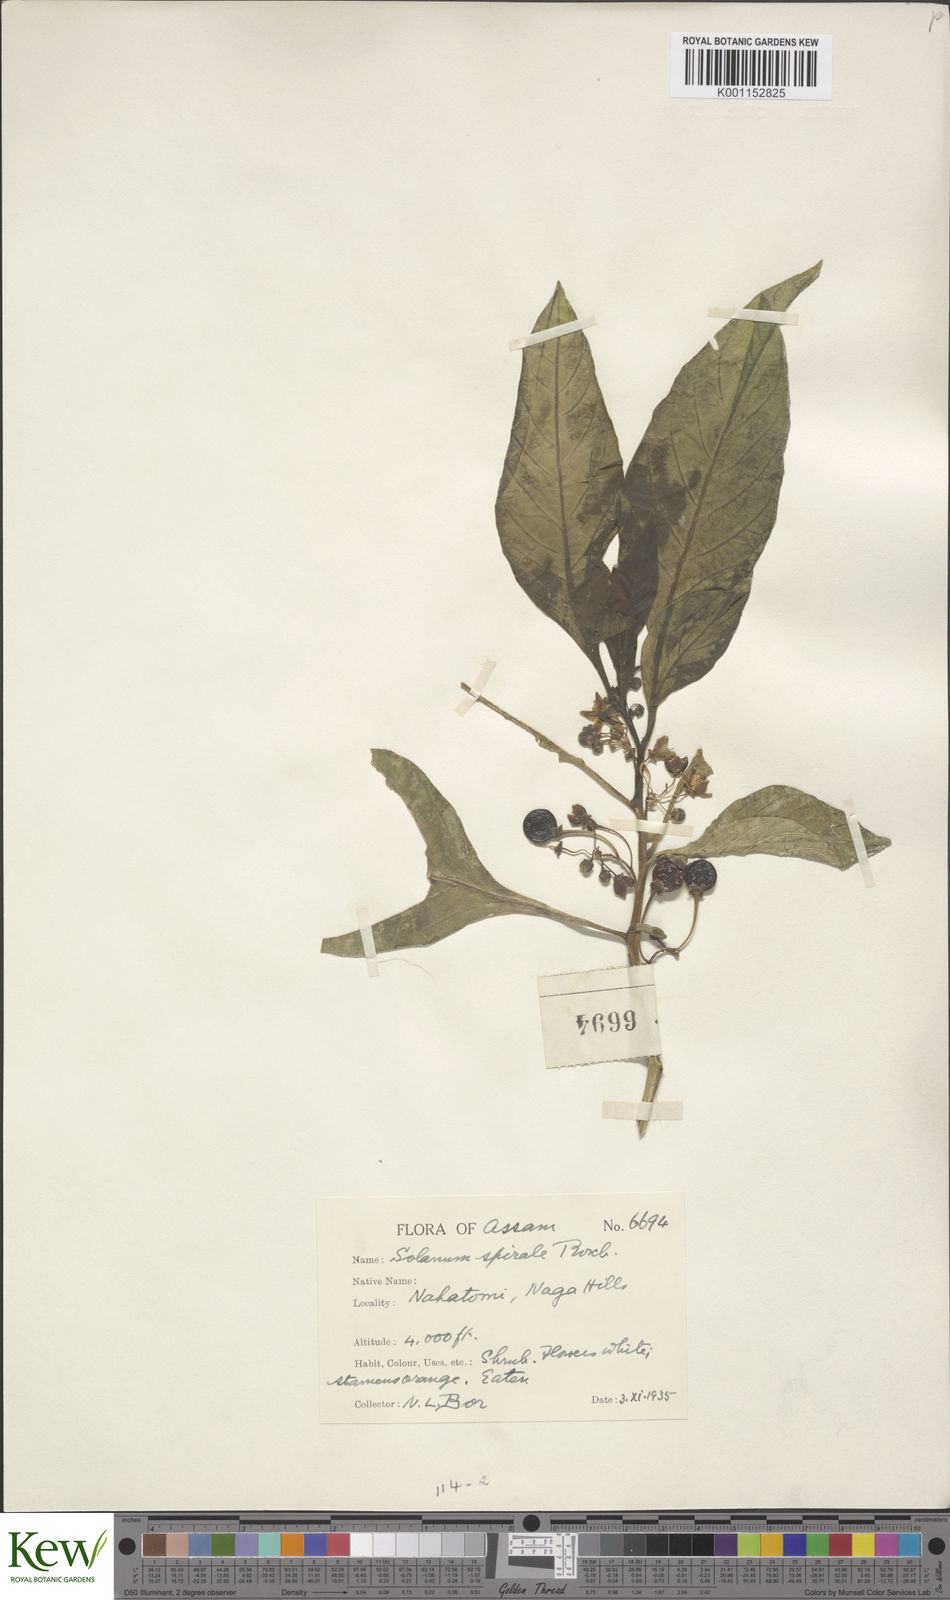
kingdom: Plantae
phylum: Tracheophyta
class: Magnoliopsida
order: Solanales
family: Solanaceae
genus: Solanum
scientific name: Solanum spirale
